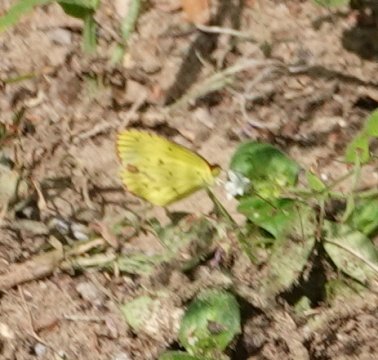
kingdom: Animalia
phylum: Arthropoda
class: Insecta
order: Lepidoptera
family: Pieridae
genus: Pyrisitia
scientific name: Pyrisitia lisa
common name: Little Yellow
